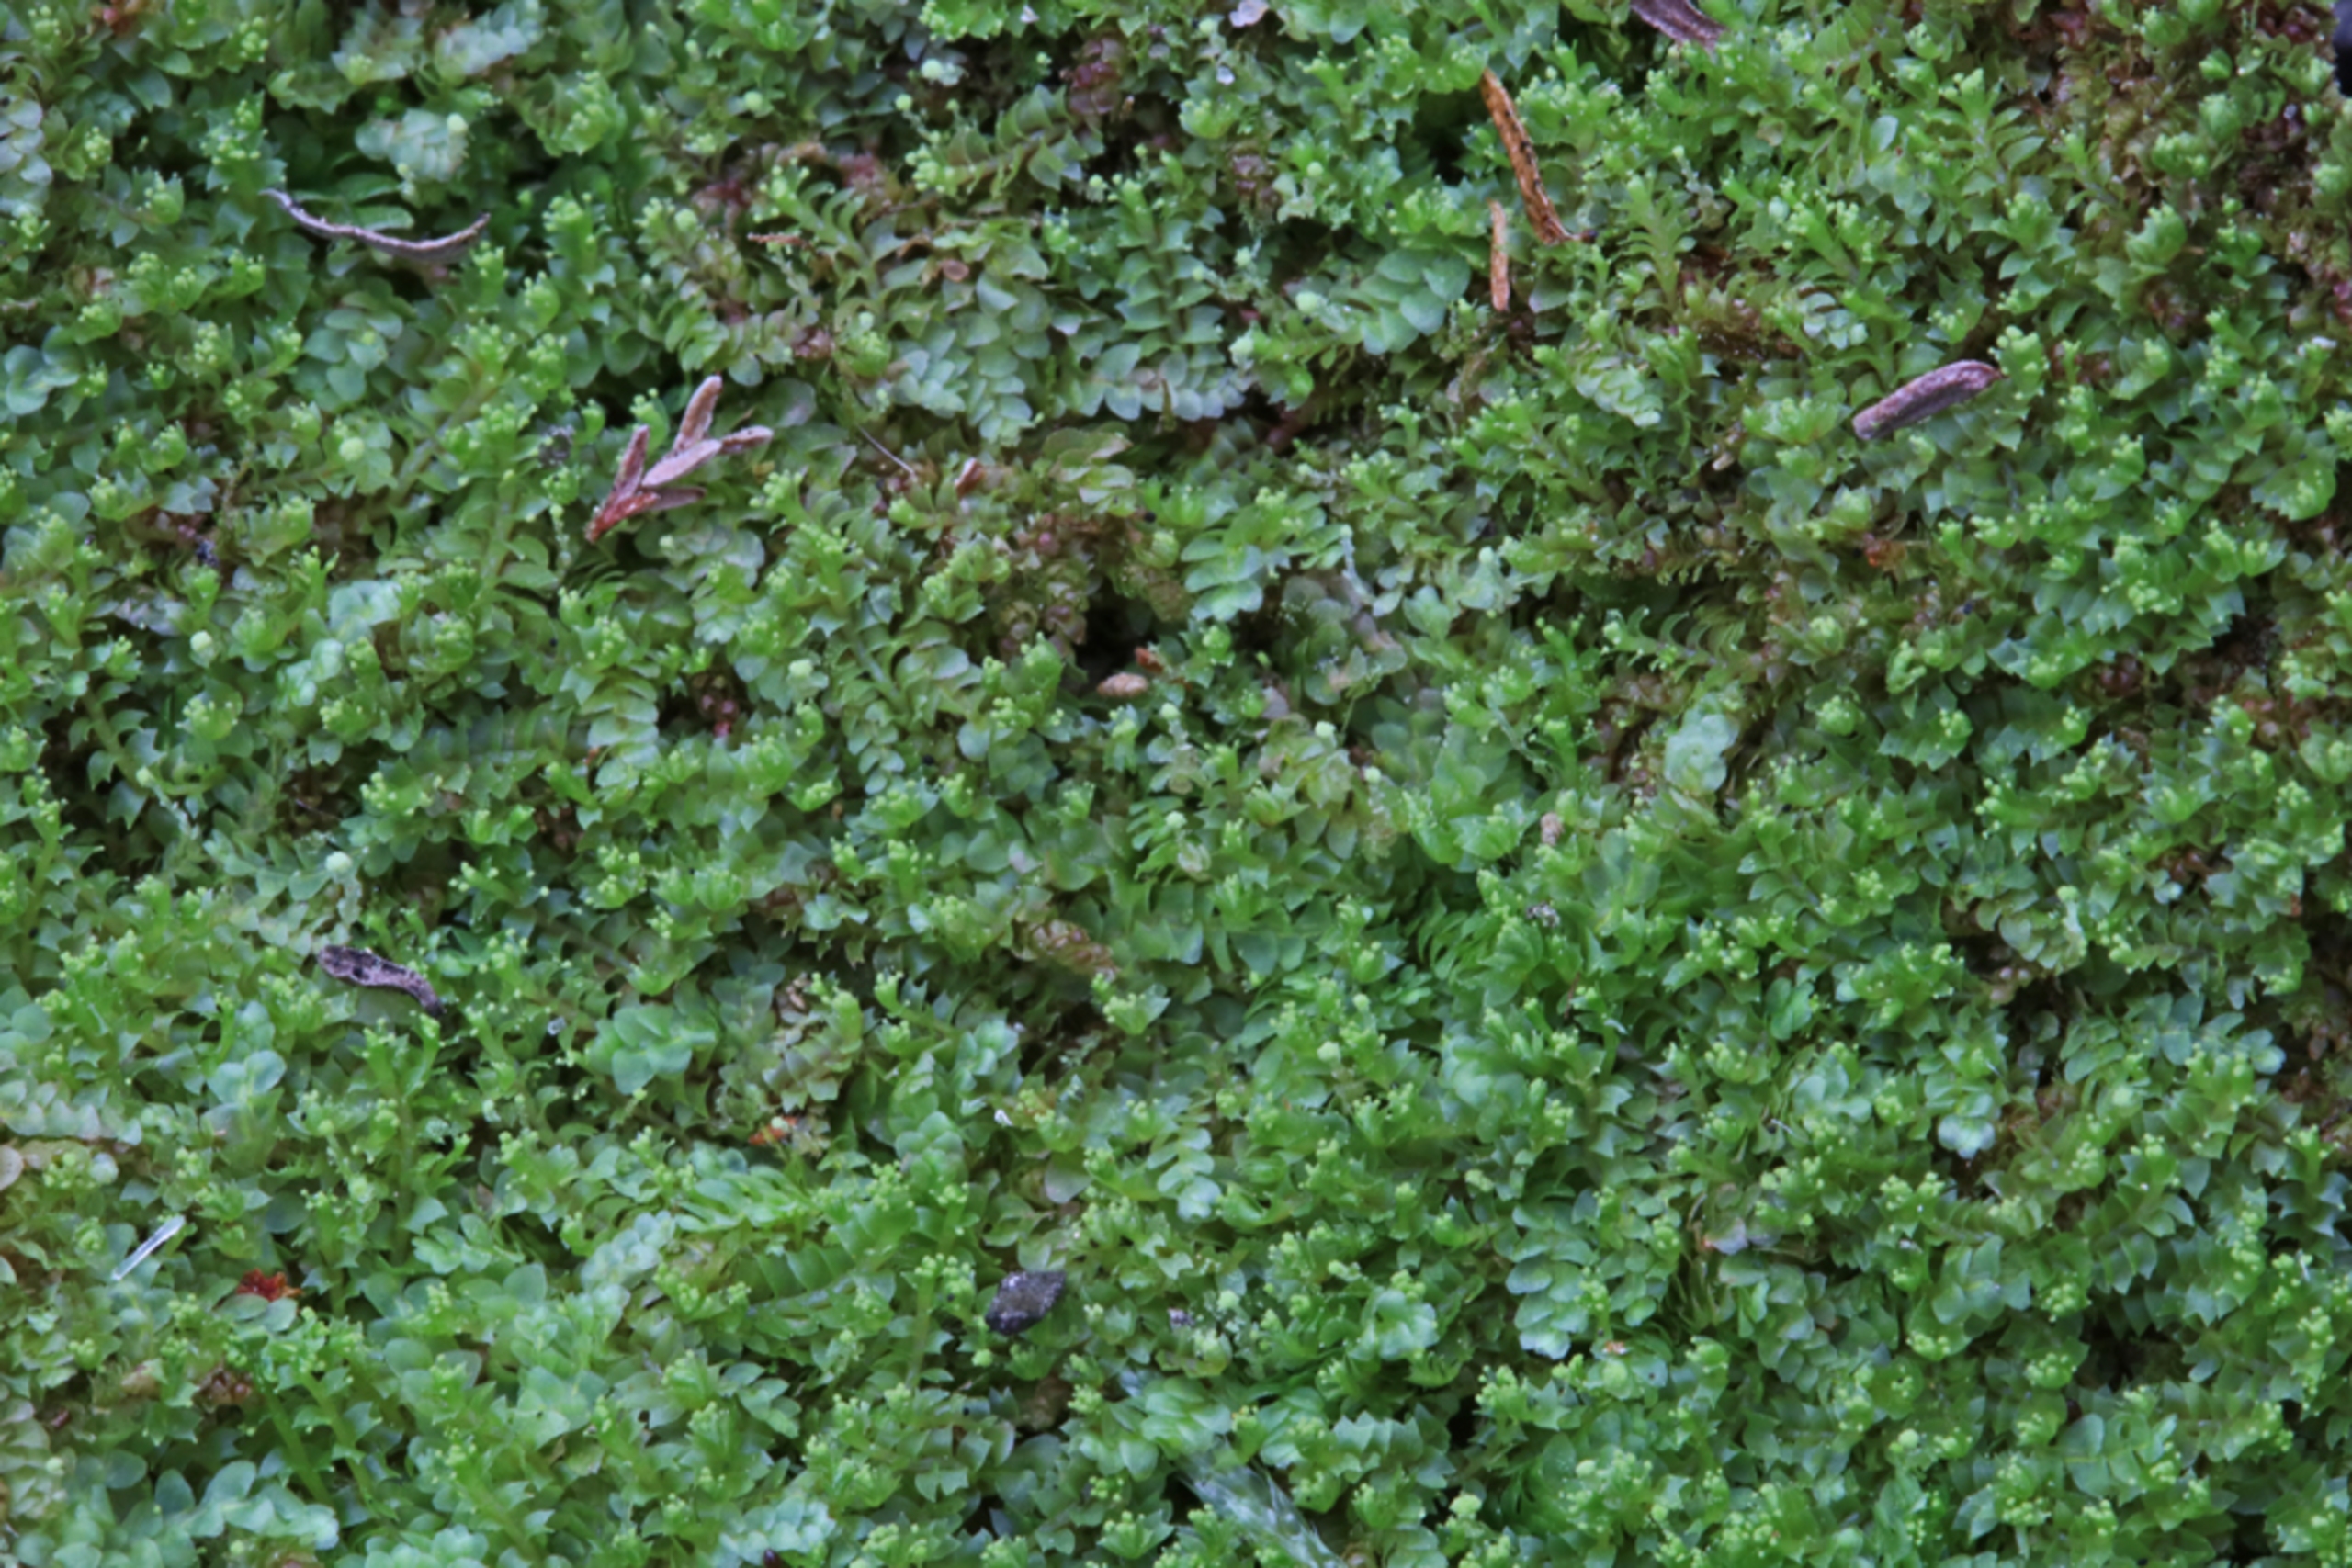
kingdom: Plantae
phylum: Marchantiophyta
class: Jungermanniopsida
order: Jungermanniales
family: Calypogeiaceae
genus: Calypogeia
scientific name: Calypogeia muelleriana
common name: Almindelig sækmos
